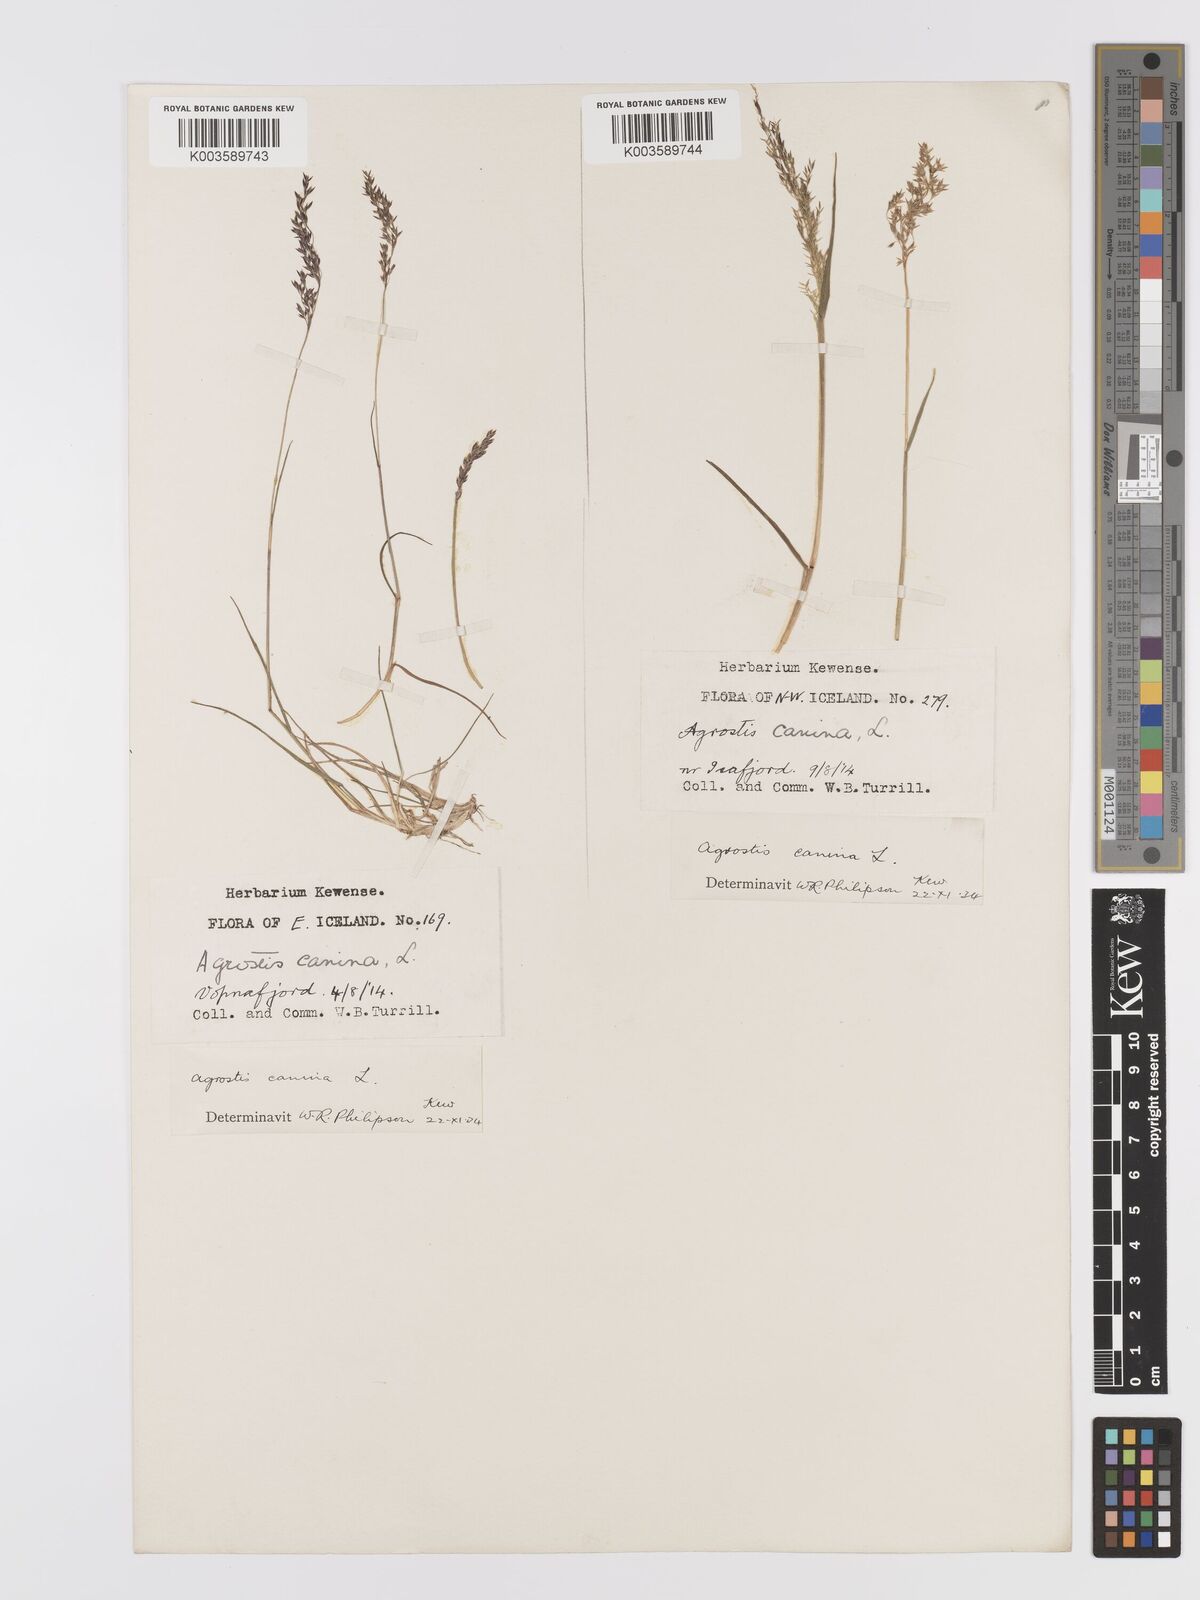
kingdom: Plantae
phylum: Tracheophyta
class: Liliopsida
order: Poales
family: Poaceae
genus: Agrostis
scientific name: Agrostis
